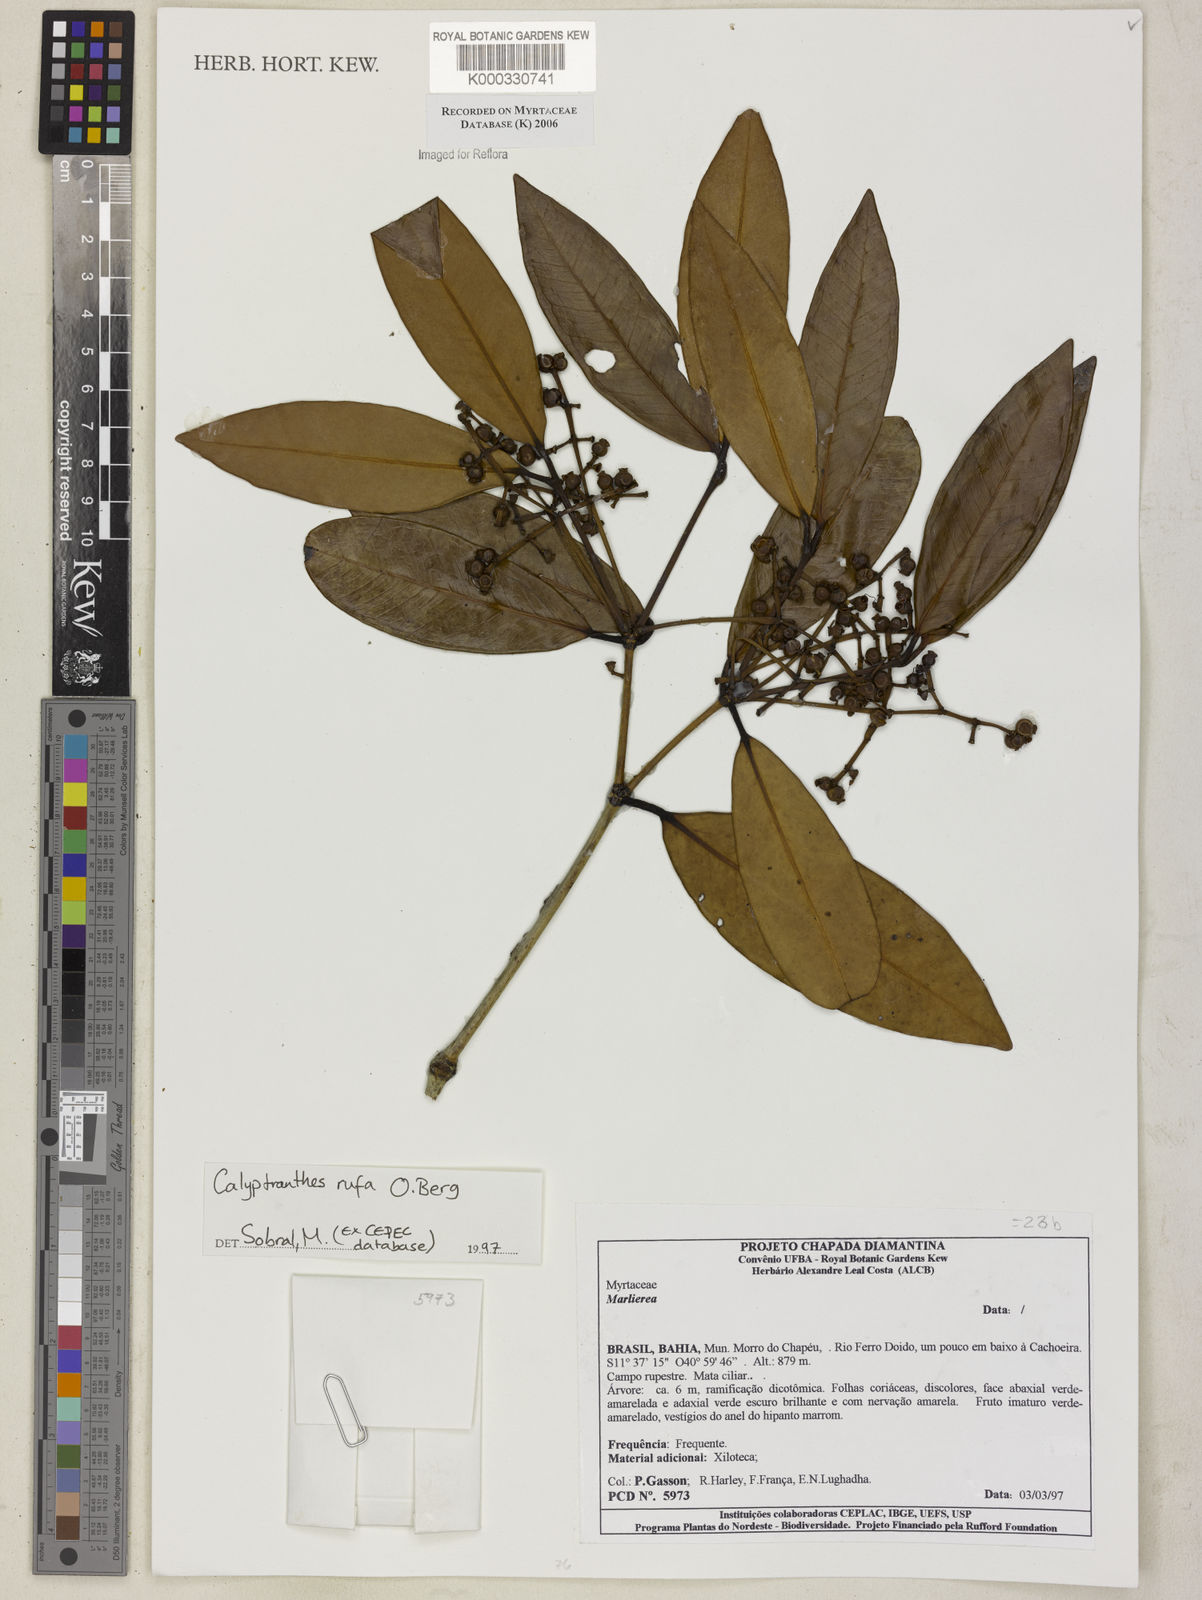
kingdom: Plantae
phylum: Tracheophyta
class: Magnoliopsida
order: Myrtales
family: Myrtaceae
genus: Calyptranthes
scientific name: Calyptranthes
